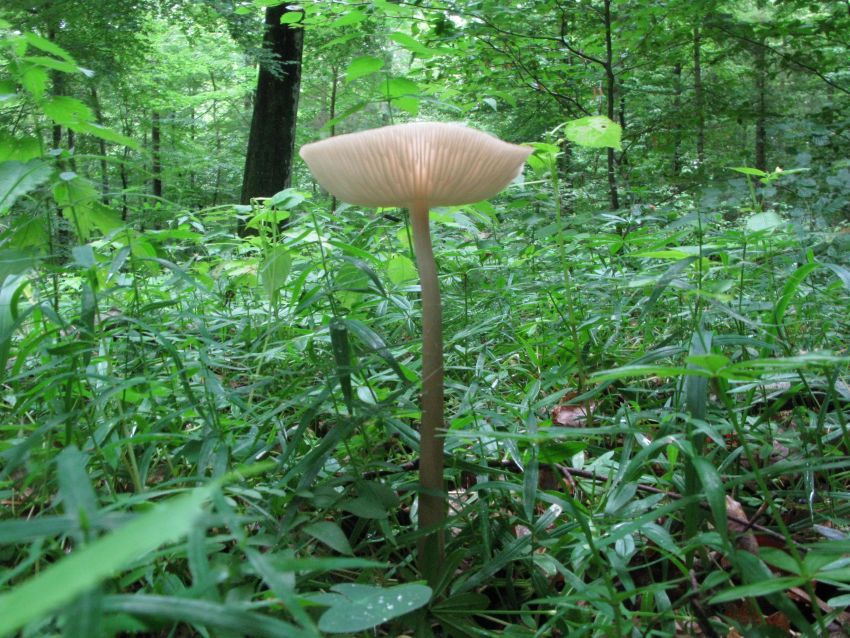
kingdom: Fungi
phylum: Basidiomycota
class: Agaricomycetes
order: Agaricales
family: Physalacriaceae
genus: Hymenopellis
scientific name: Hymenopellis radicata
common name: almindelig pælerodshat
